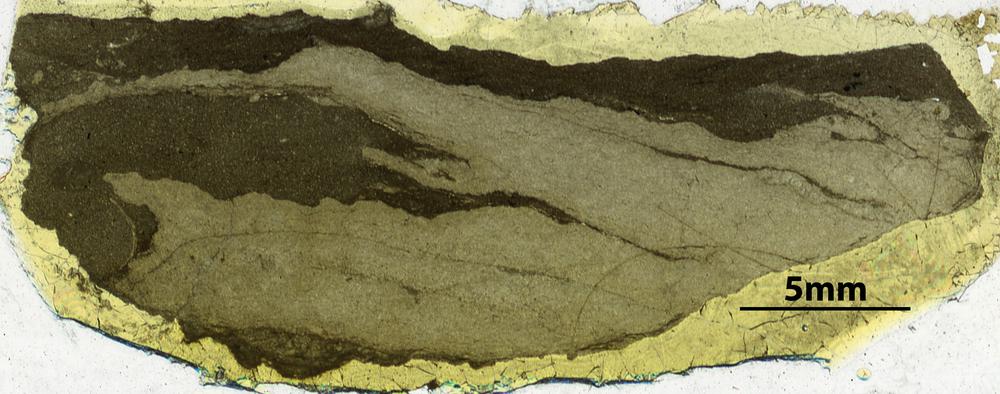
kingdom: Animalia
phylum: Porifera
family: Ecclimadictyidae
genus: Ecclimadictyon
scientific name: Ecclimadictyon
